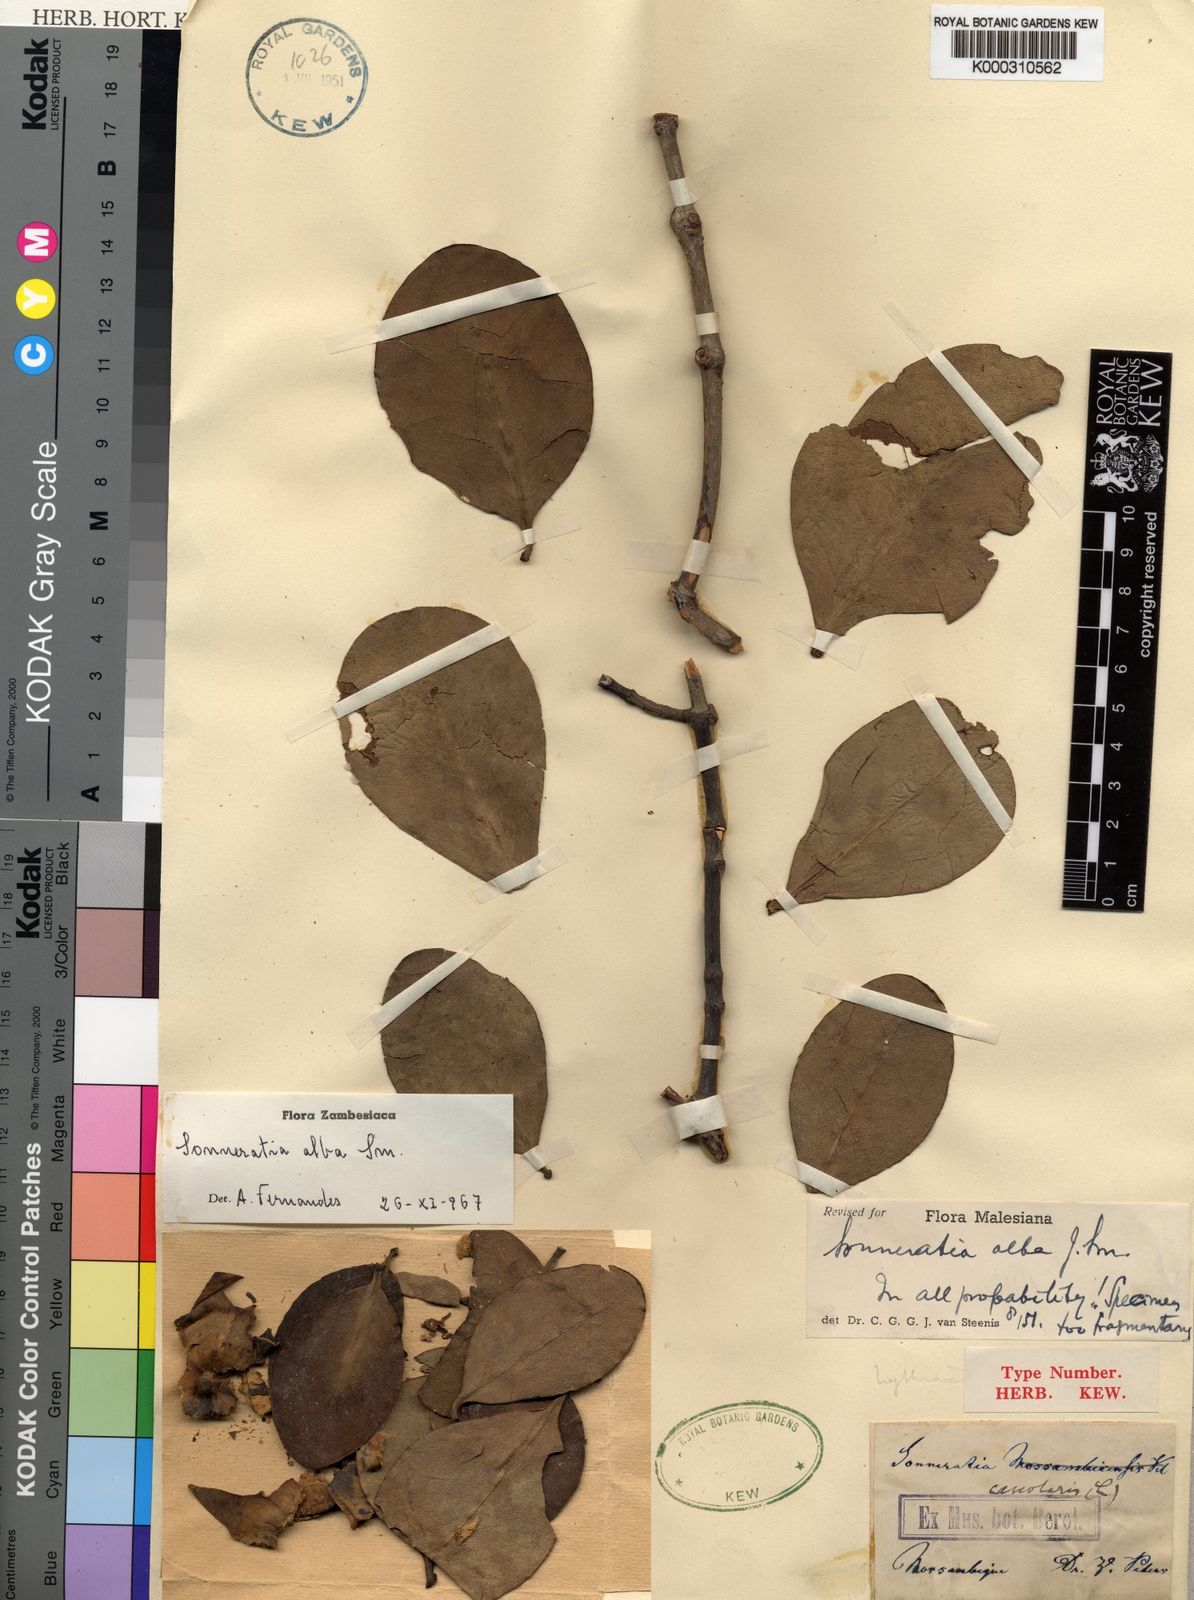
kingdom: Plantae
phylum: Tracheophyta
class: Magnoliopsida
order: Myrtales
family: Lythraceae
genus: Sonneratia
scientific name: Sonneratia alba
